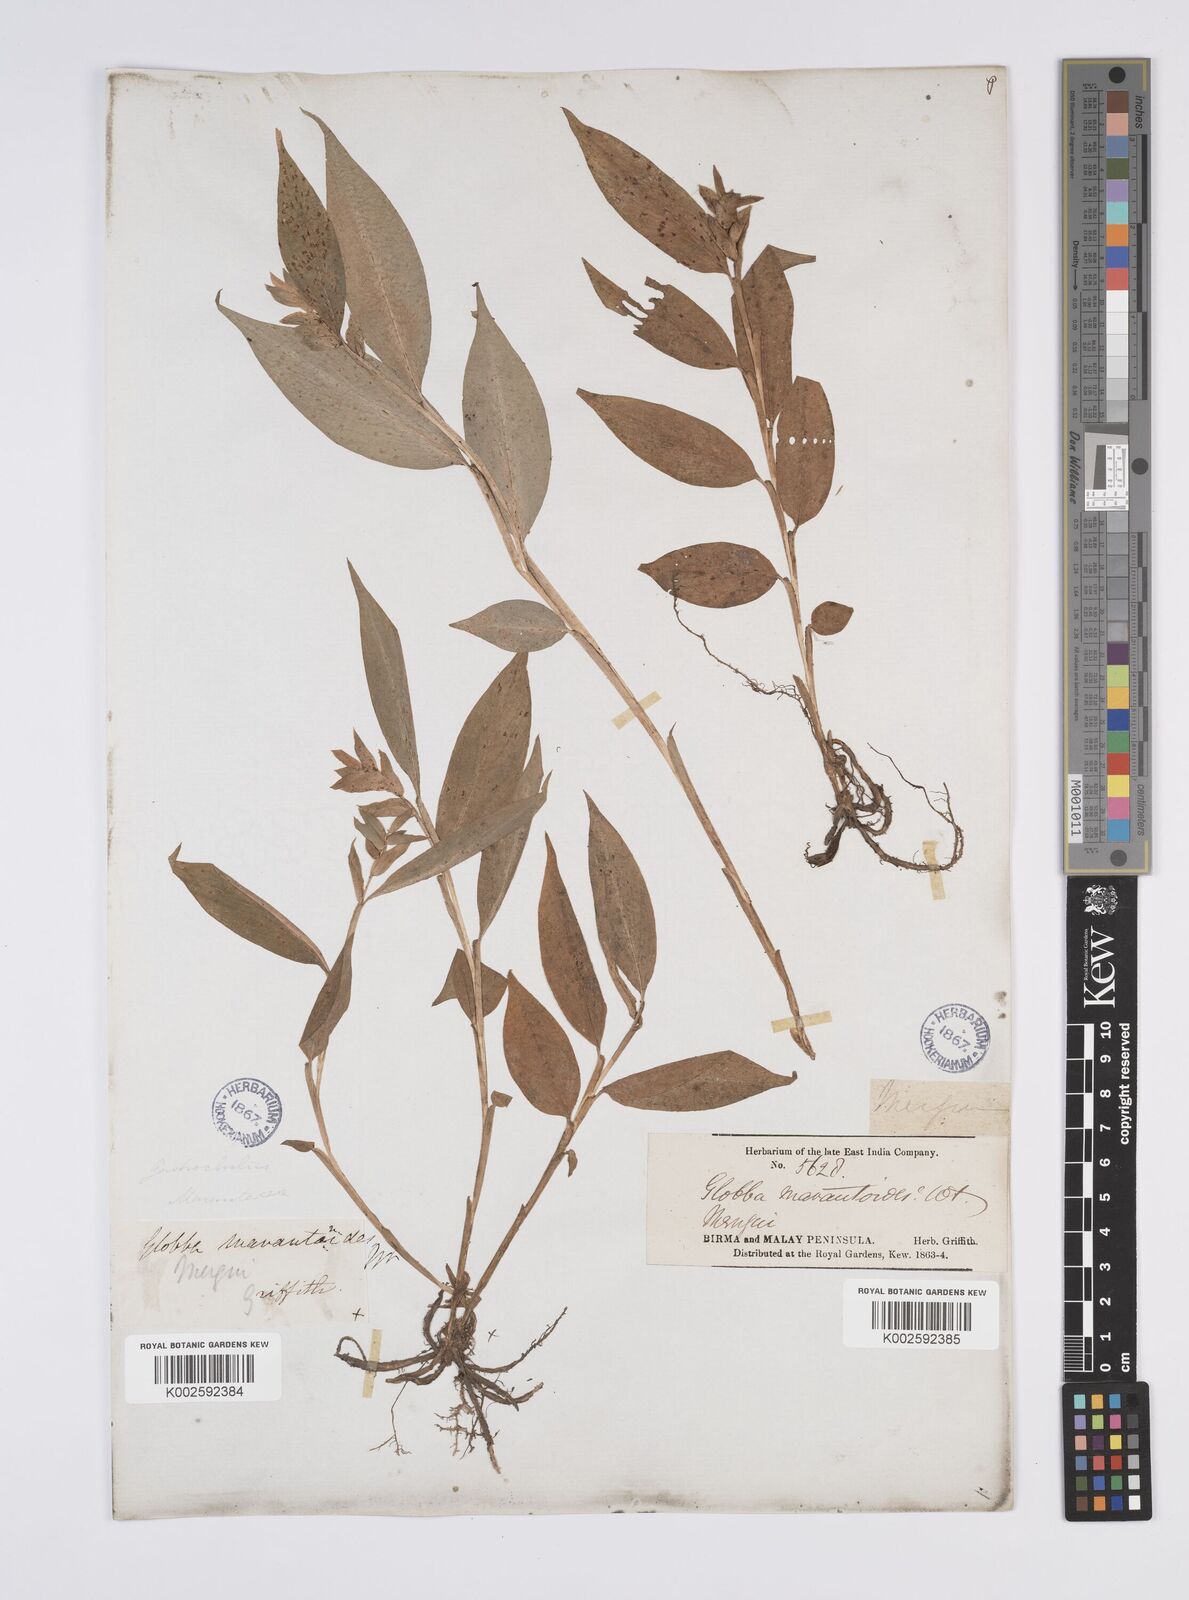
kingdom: Plantae
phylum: Tracheophyta
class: Liliopsida
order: Zingiberales
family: Zingiberaceae
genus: Globba
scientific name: Globba marantina
